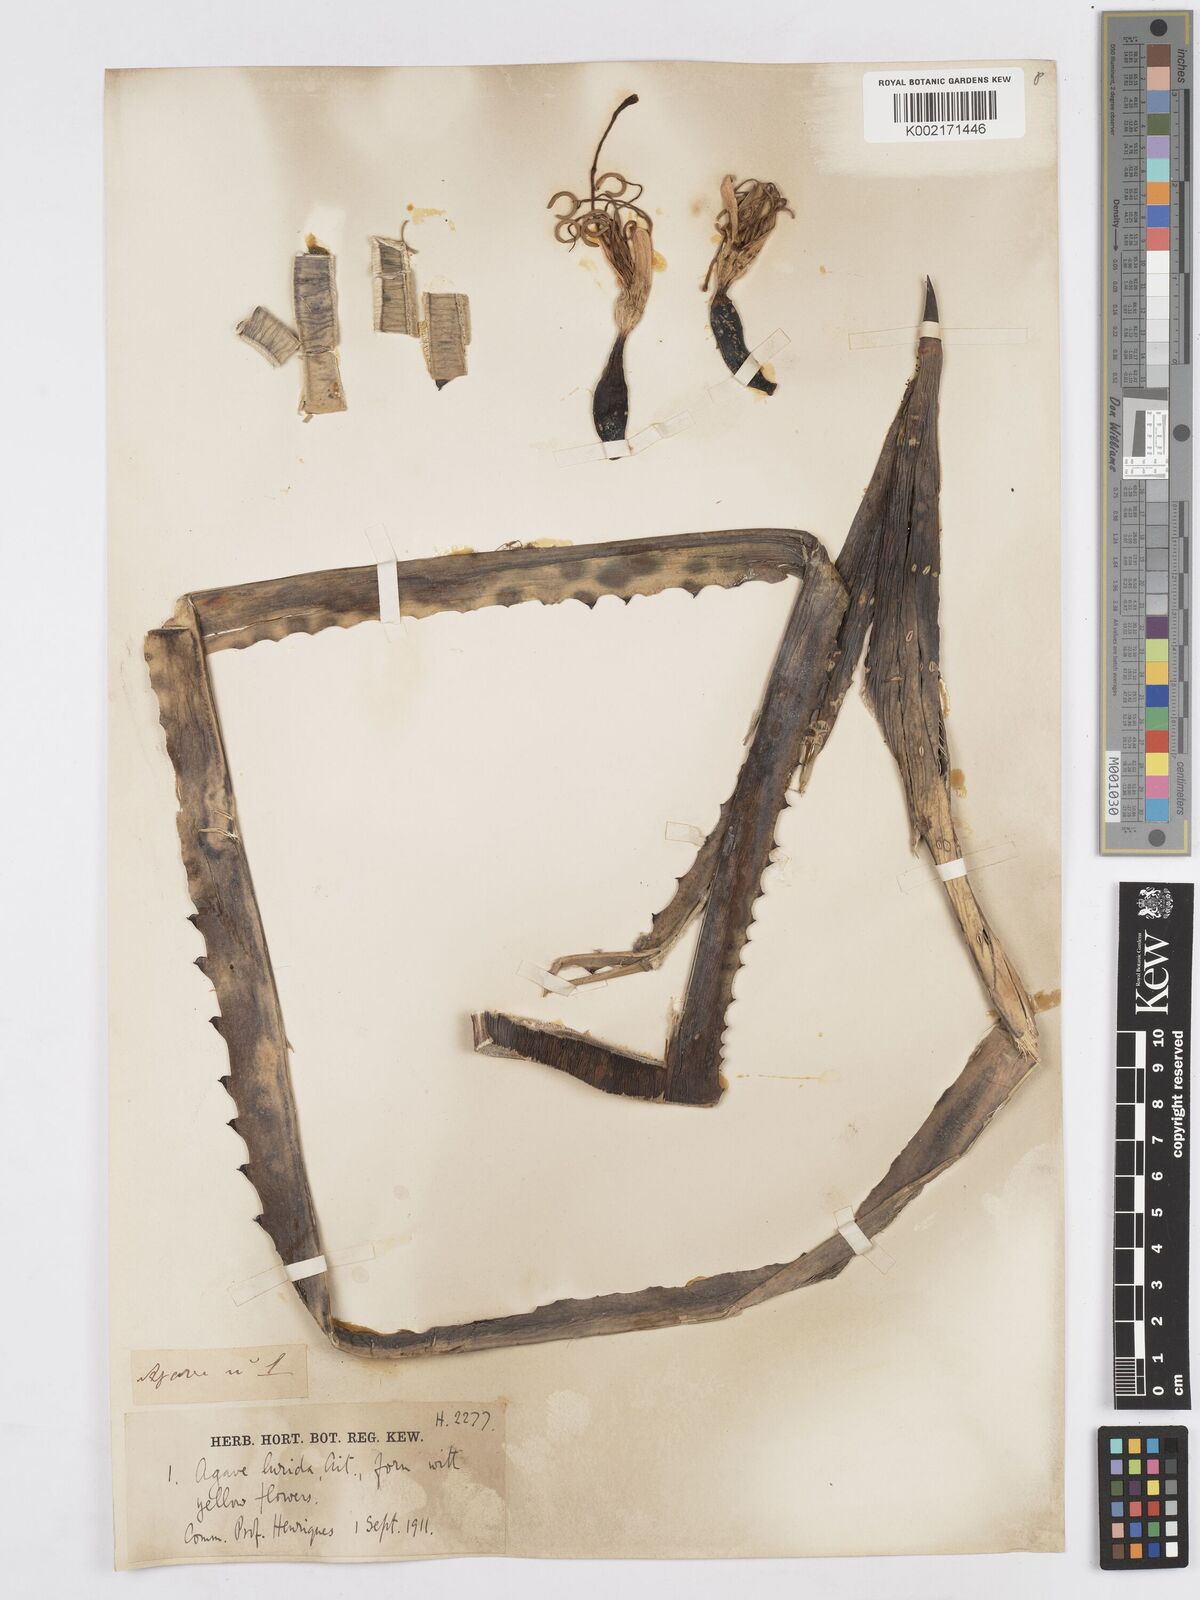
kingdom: Plantae
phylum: Tracheophyta
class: Liliopsida
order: Asparagales
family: Asparagaceae
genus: Agave
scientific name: Agave vera-cruz
